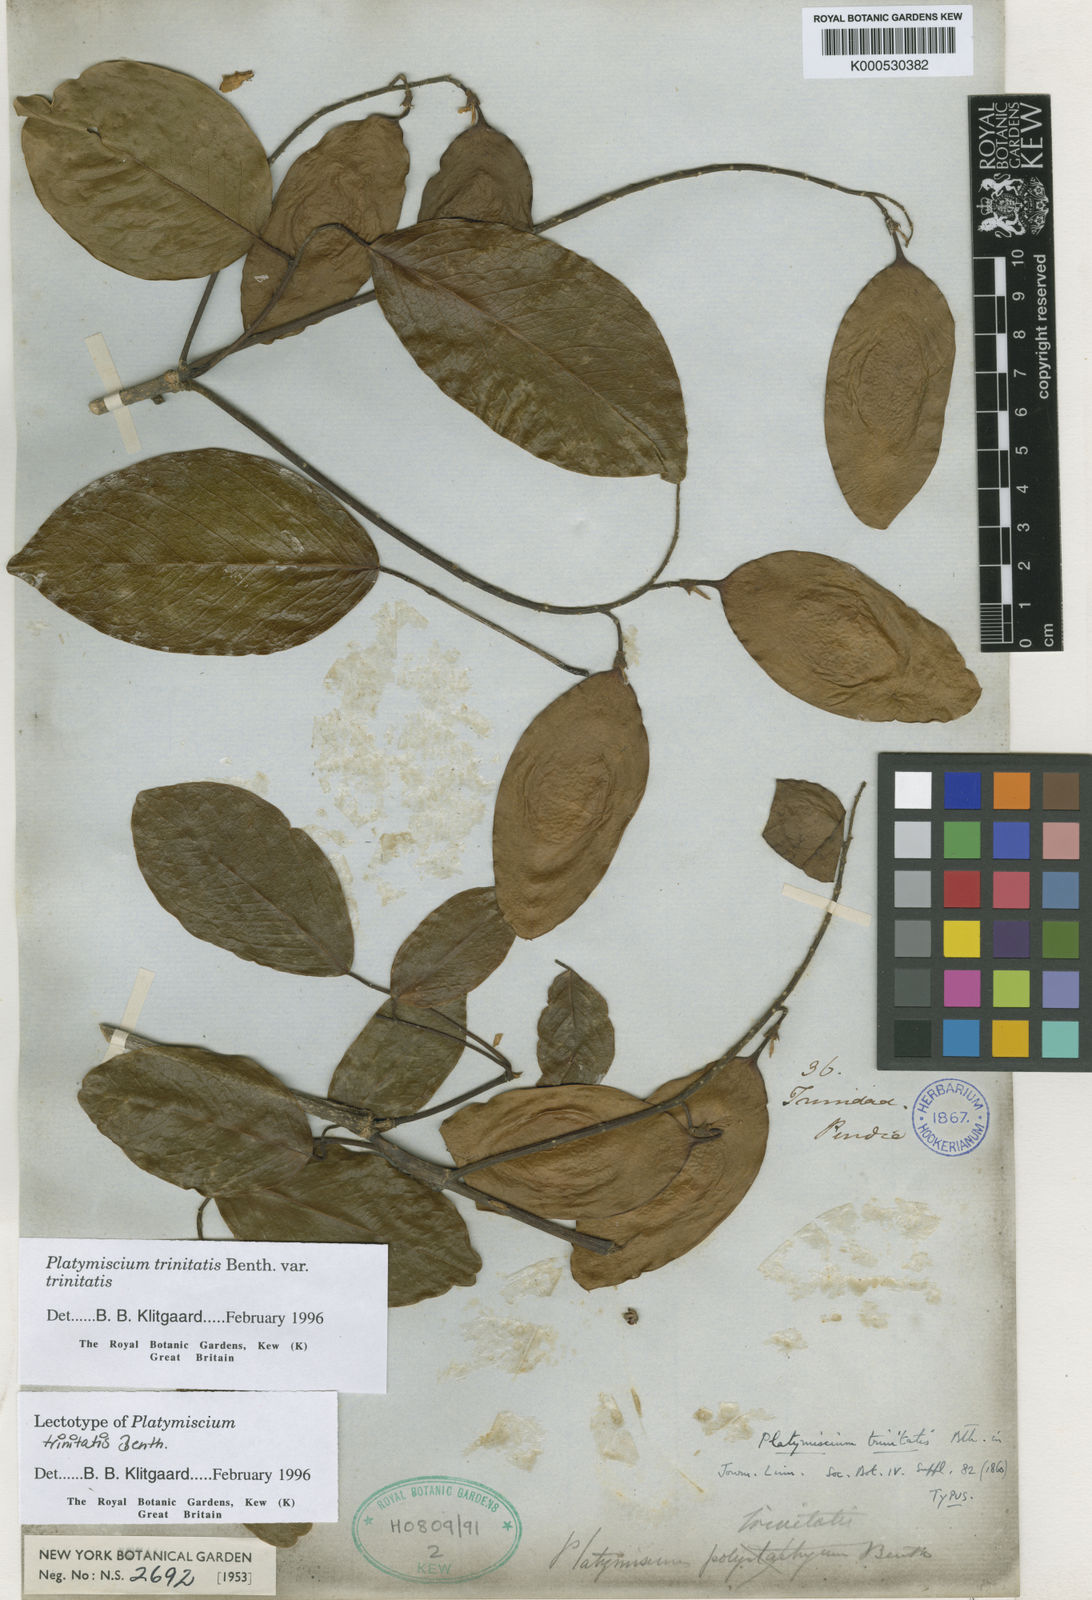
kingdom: Plantae
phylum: Tracheophyta
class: Magnoliopsida
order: Fabales
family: Fabaceae
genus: Platymiscium
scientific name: Platymiscium trinitatis
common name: Trinidad macawood
